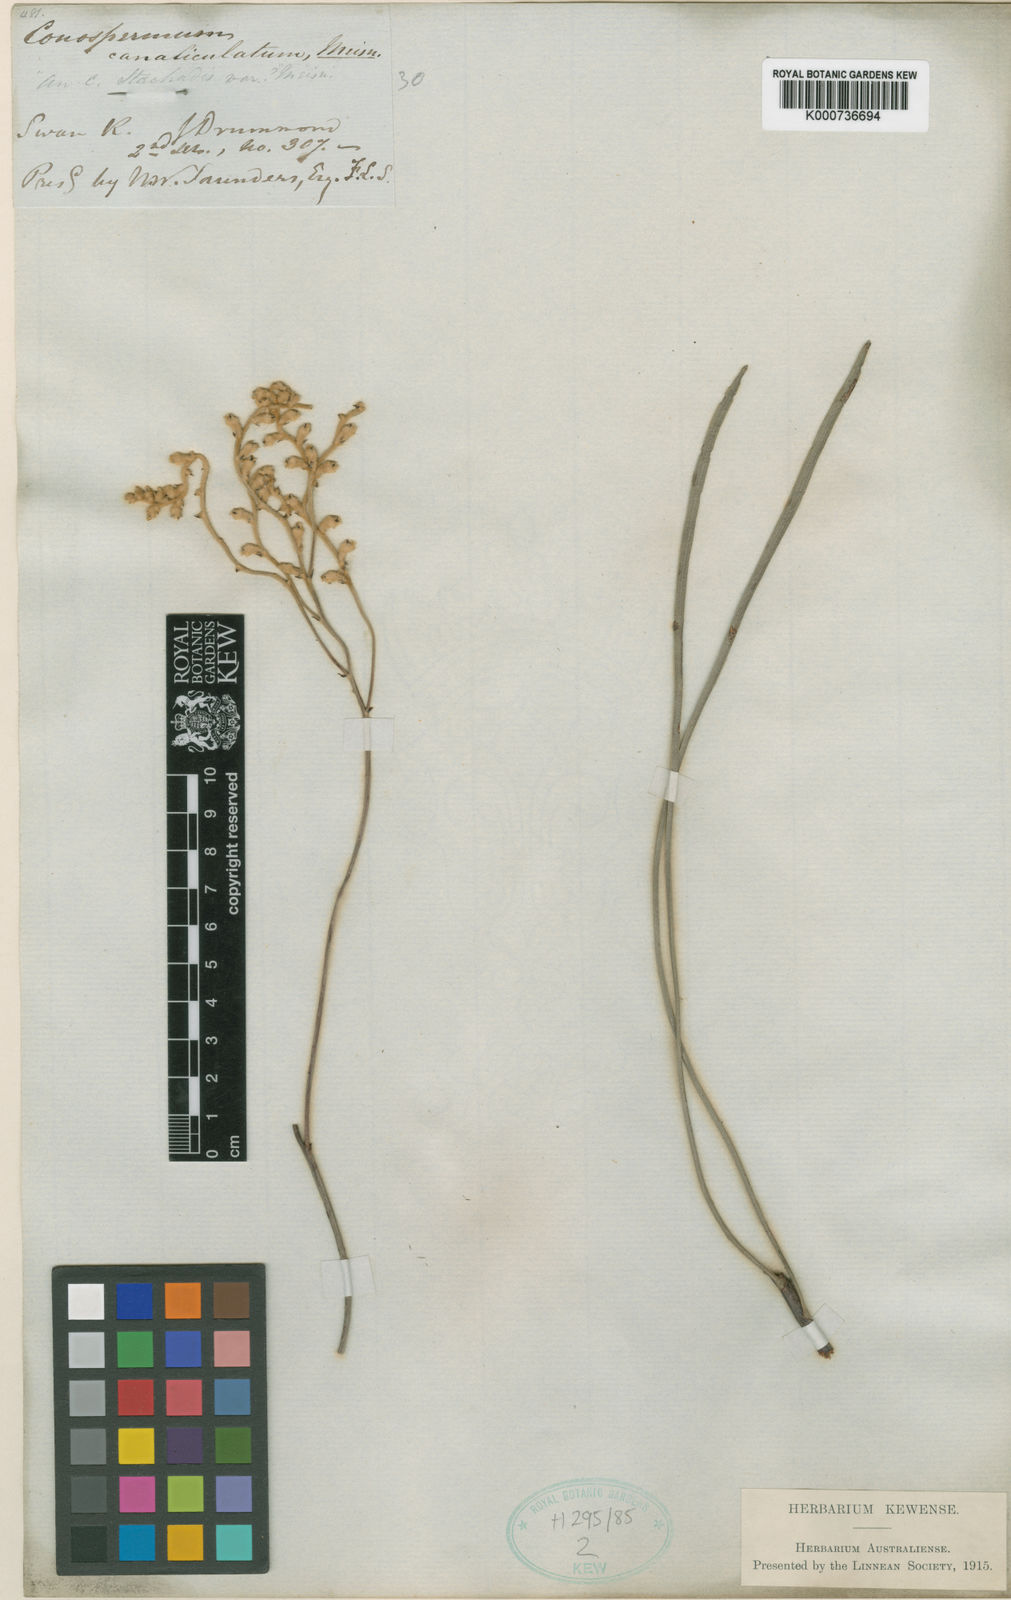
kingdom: Plantae
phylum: Tracheophyta
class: Magnoliopsida
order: Proteales
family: Proteaceae
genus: Conospermum
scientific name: Conospermum stoechadis
